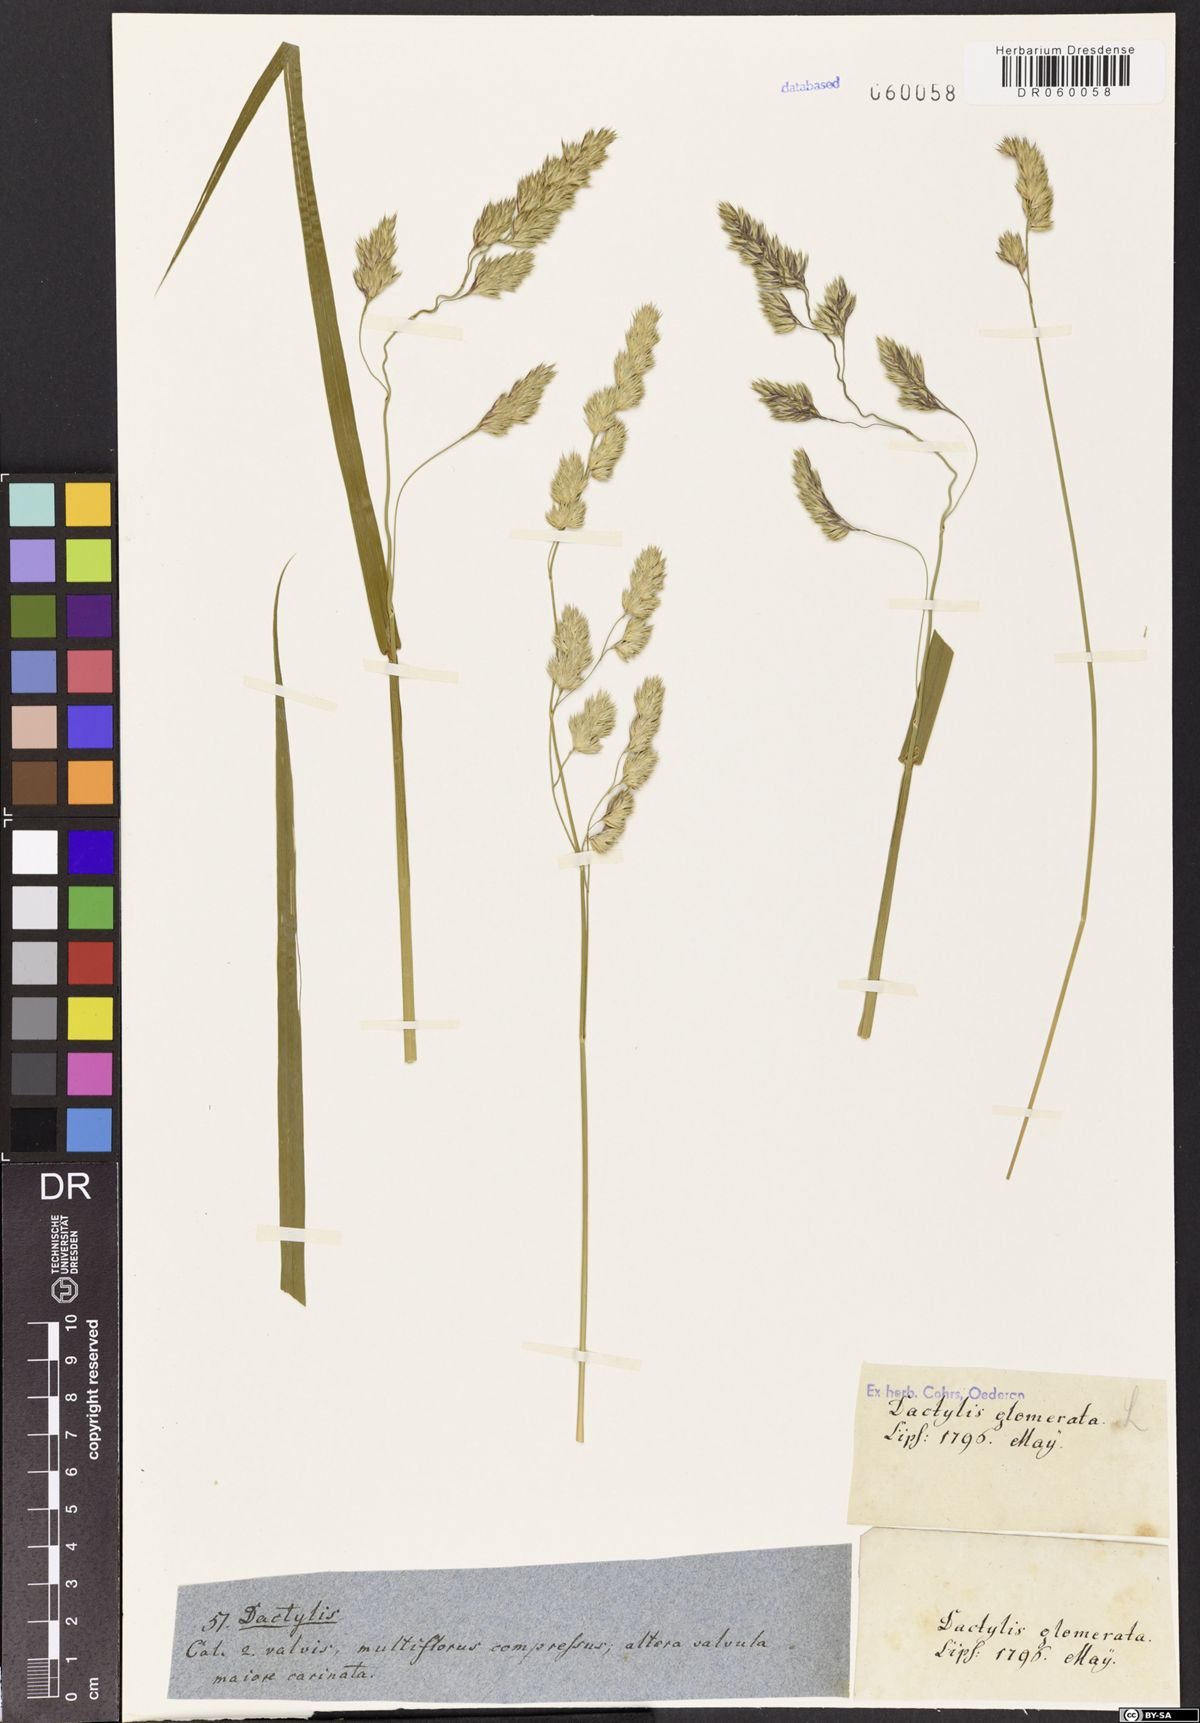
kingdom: Plantae
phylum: Tracheophyta
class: Liliopsida
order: Poales
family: Poaceae
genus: Dactylis
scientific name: Dactylis glomerata
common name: Orchardgrass
